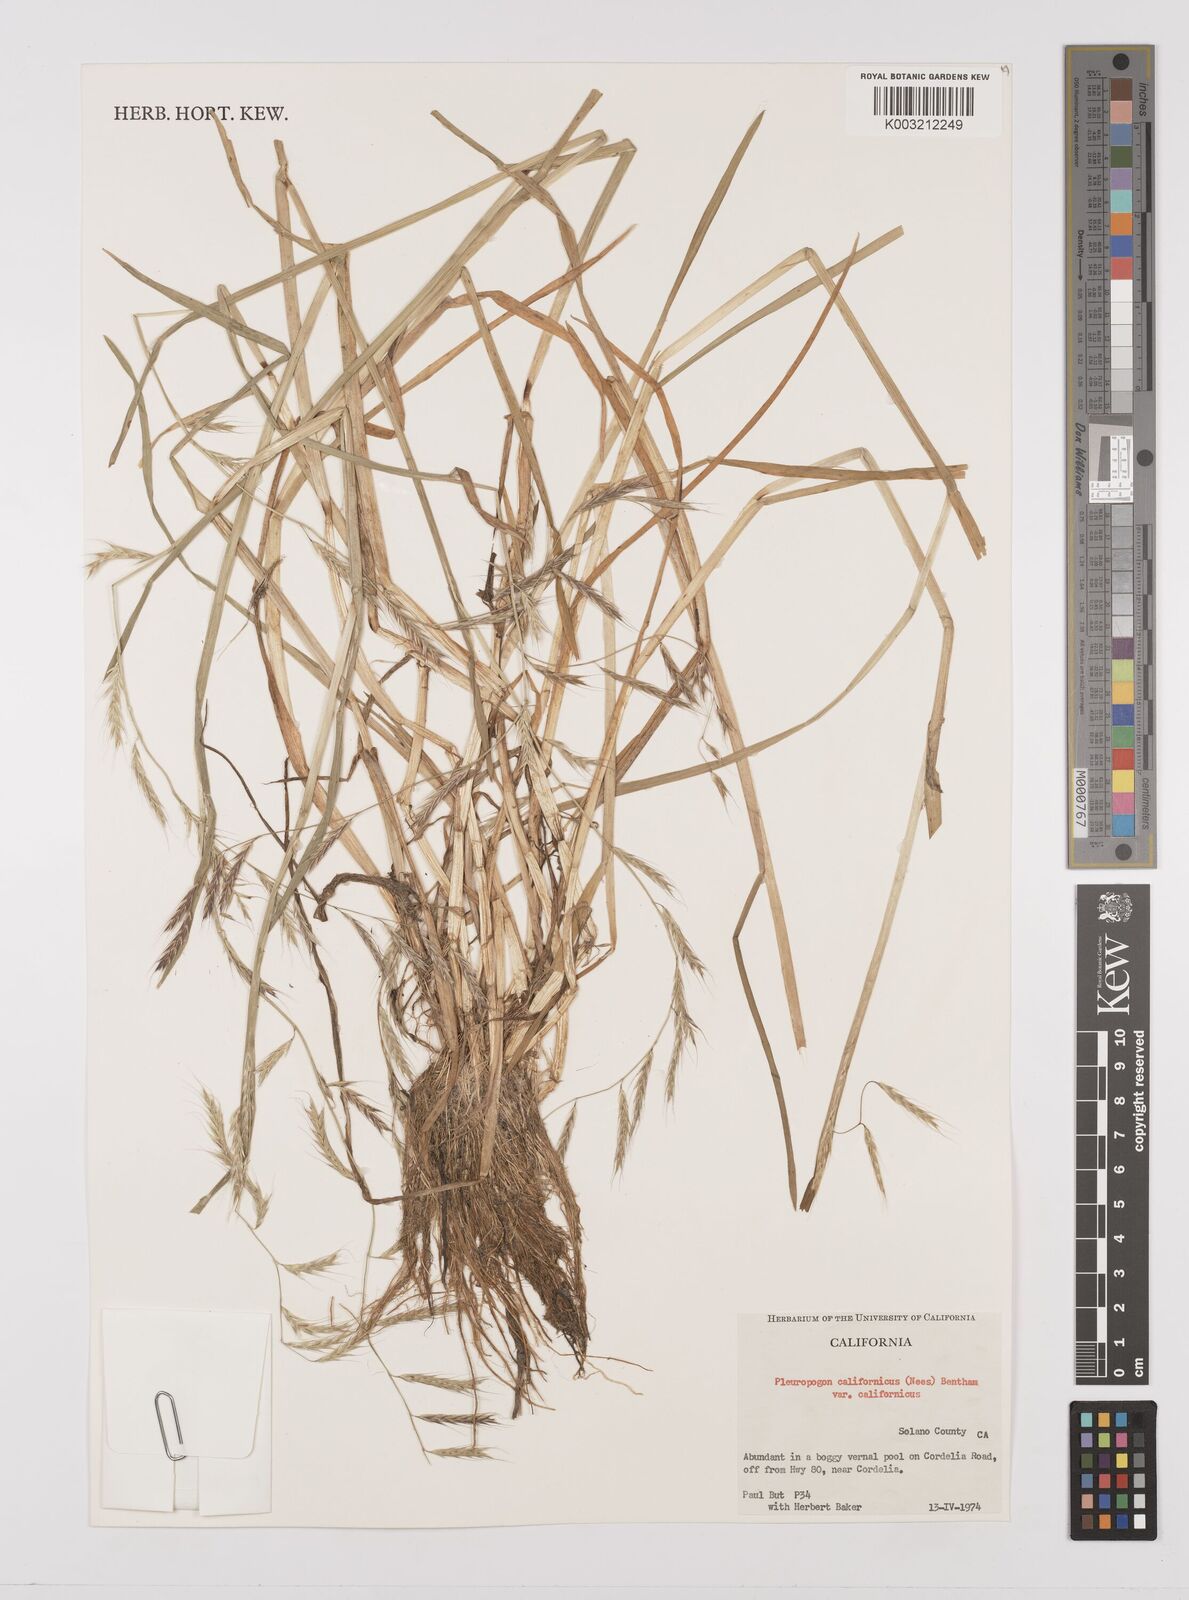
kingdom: Plantae
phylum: Tracheophyta
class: Liliopsida
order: Poales
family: Poaceae
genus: Pleuropogon
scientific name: Pleuropogon californicus
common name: California semaphore grass
